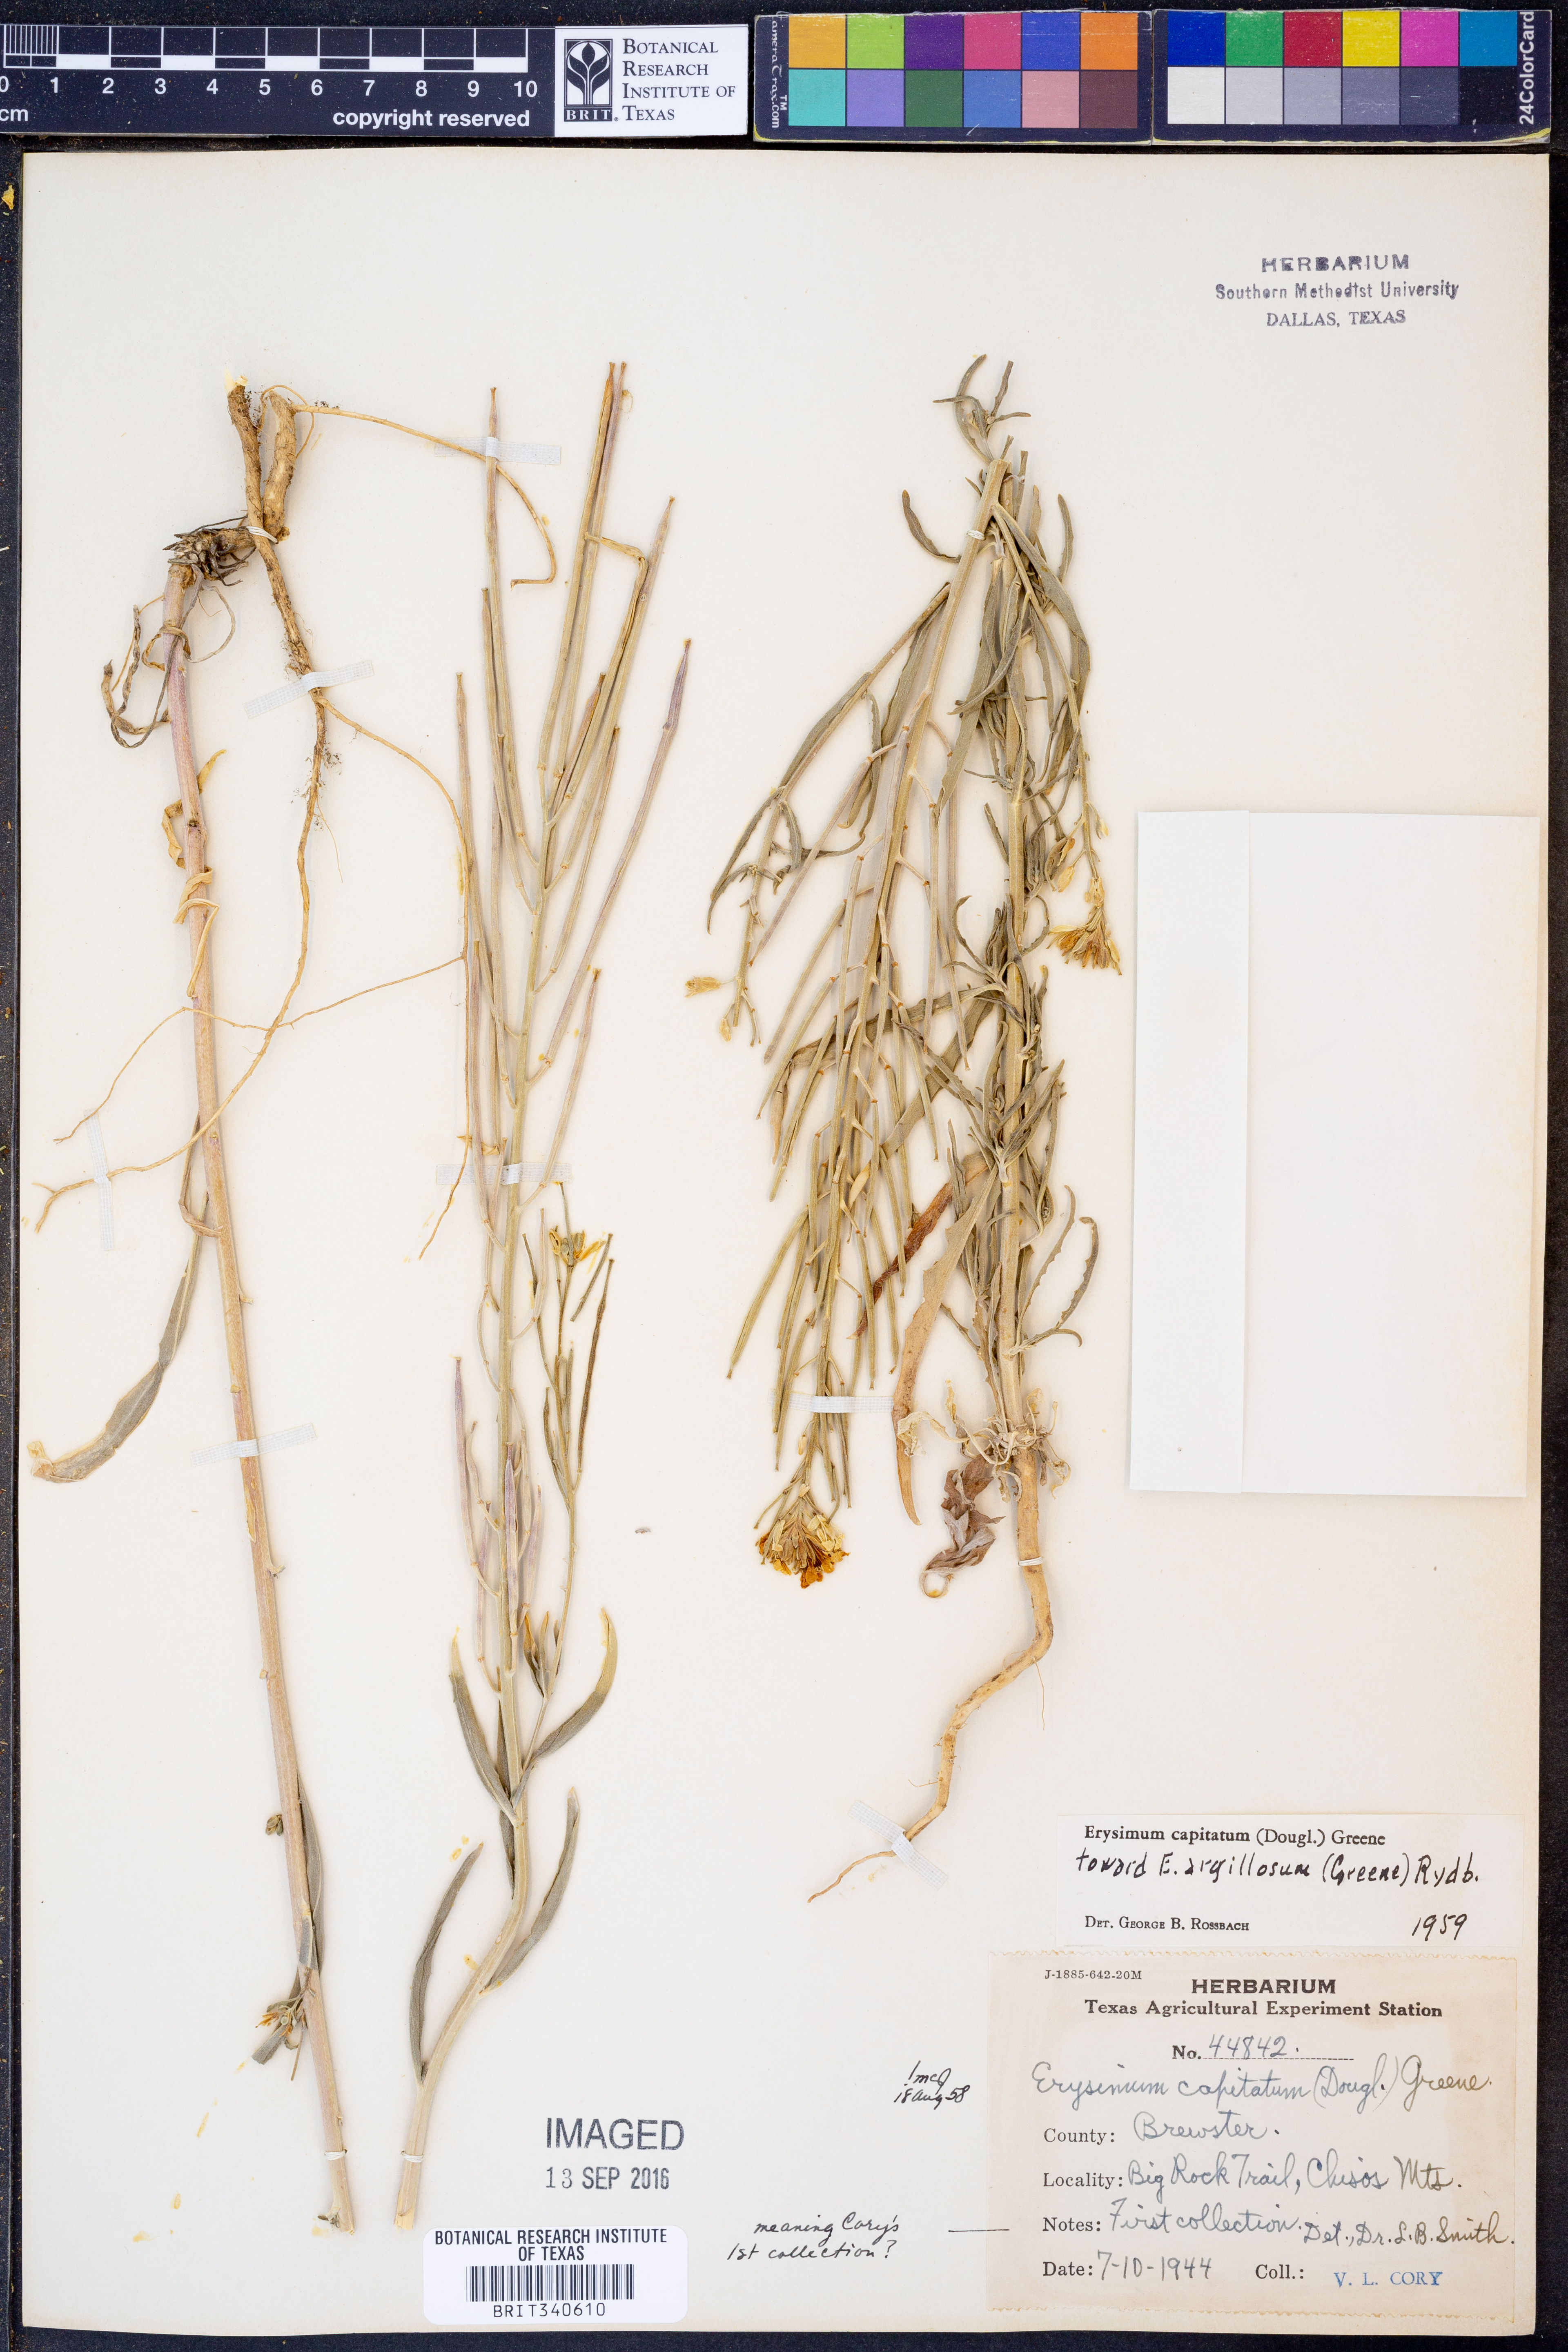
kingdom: Plantae
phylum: Tracheophyta
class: Magnoliopsida
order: Brassicales
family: Brassicaceae
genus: Erysimum
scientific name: Erysimum capitatum
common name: Western wallflower
